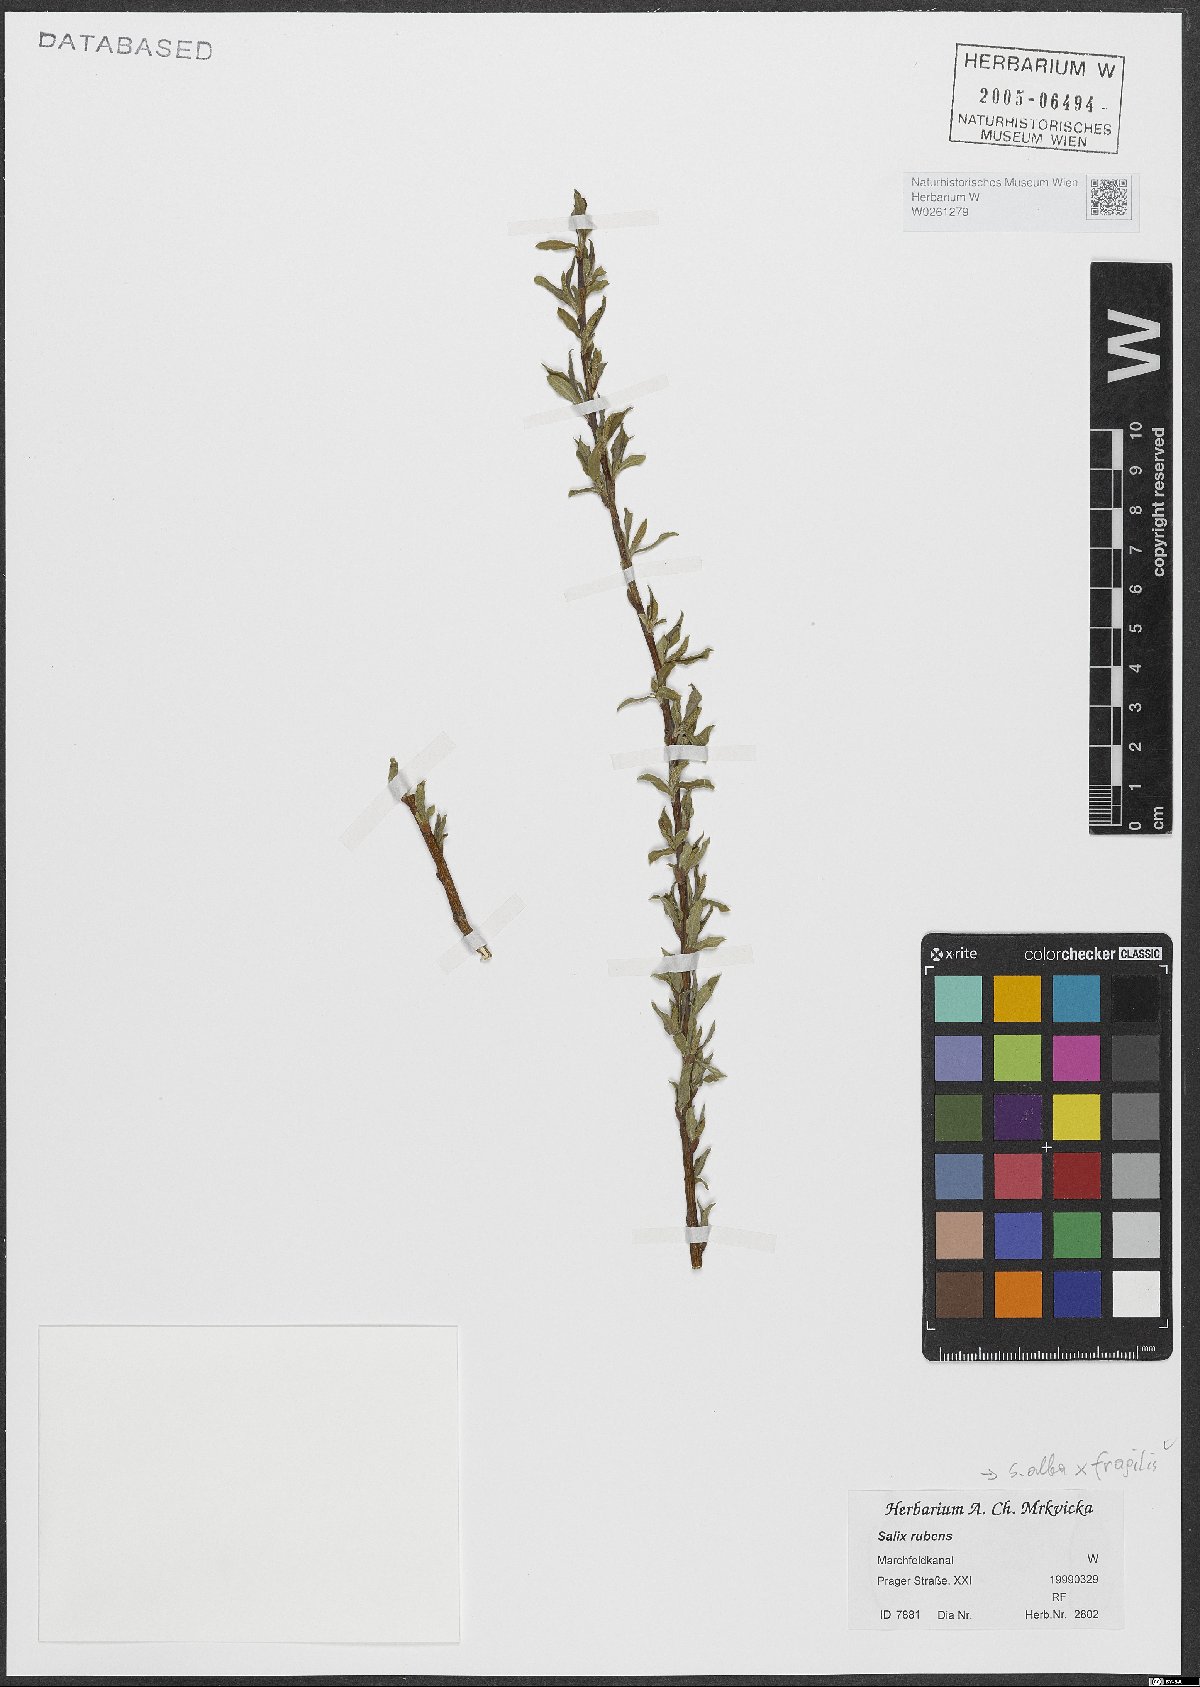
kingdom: Plantae
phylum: Tracheophyta
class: Magnoliopsida
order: Malpighiales
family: Salicaceae
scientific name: Salicaceae
